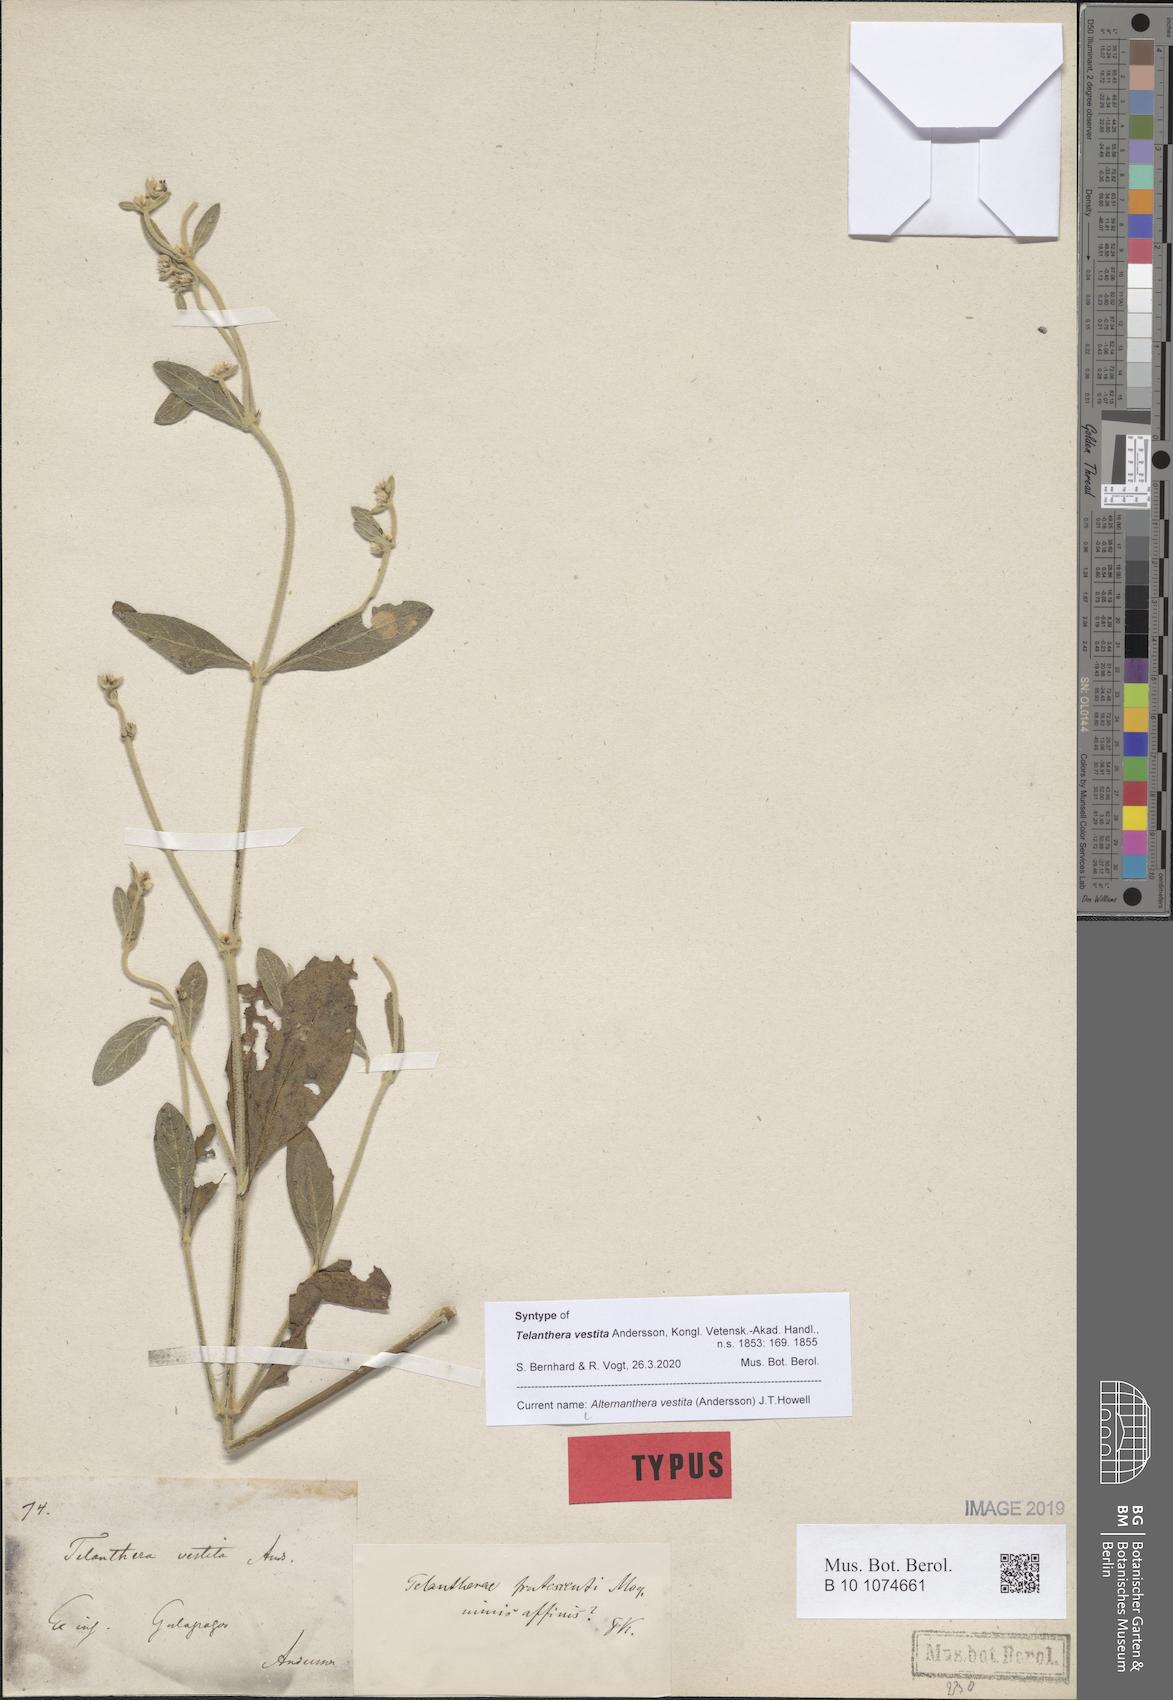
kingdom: Plantae
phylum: Tracheophyta
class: Magnoliopsida
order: Caryophyllales
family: Amaranthaceae
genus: Alternanthera
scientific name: Alternanthera vestita
